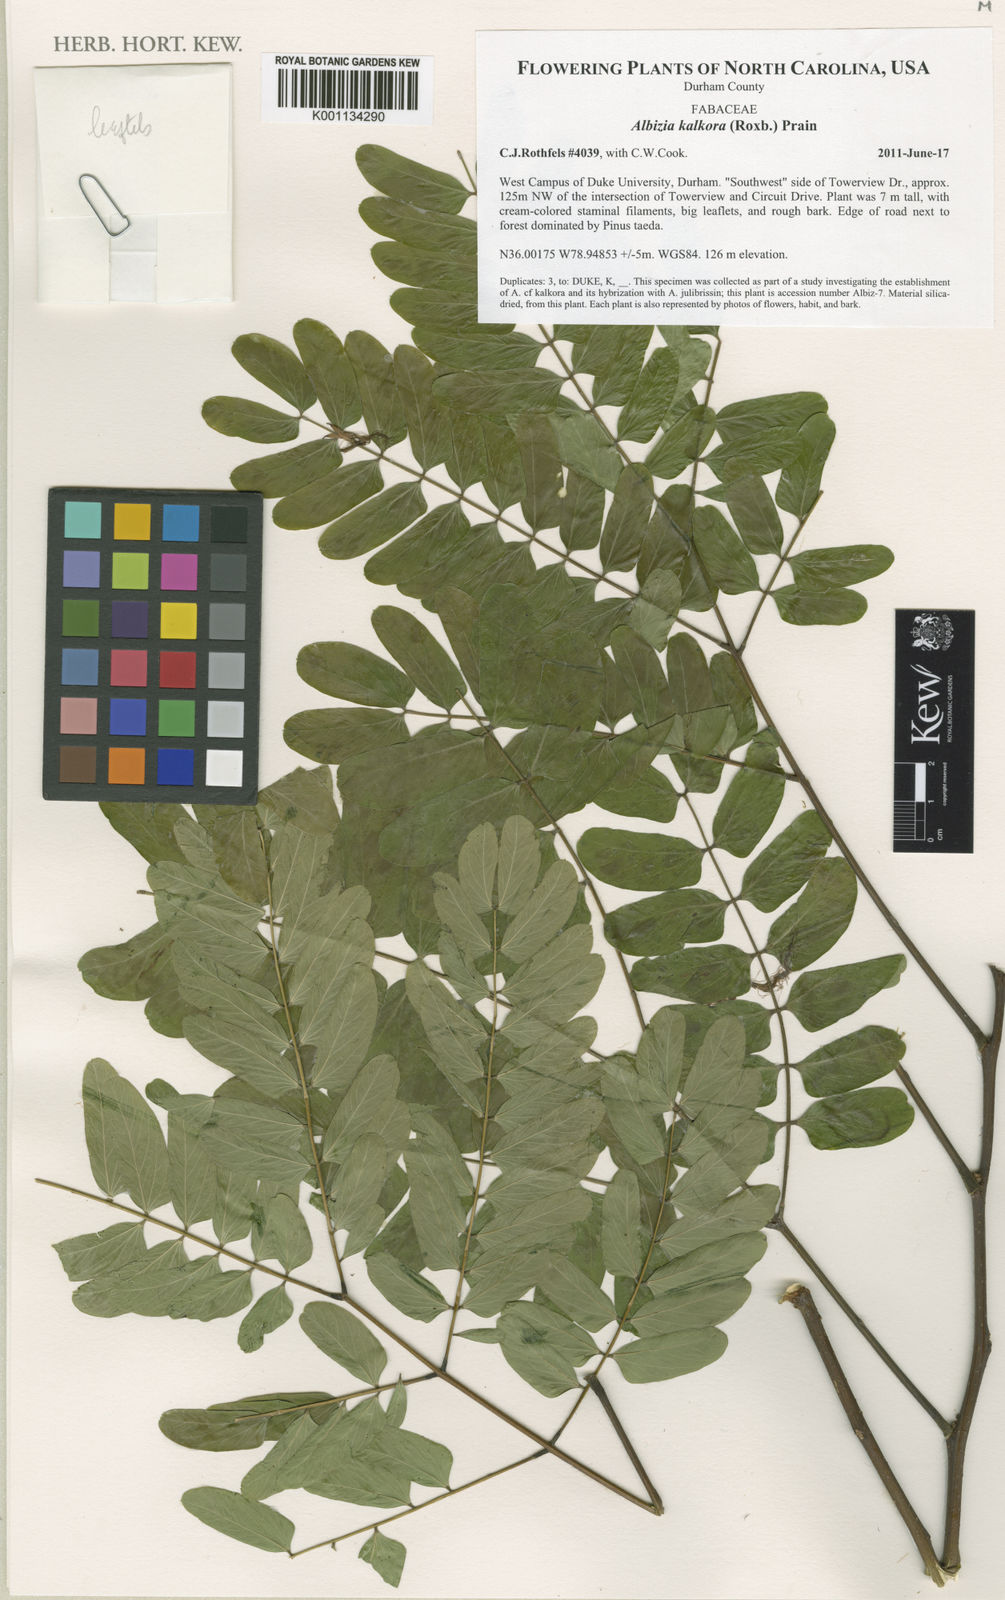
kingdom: Plantae
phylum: Tracheophyta
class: Magnoliopsida
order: Fabales
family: Fabaceae
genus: Albizia
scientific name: Albizia kalkora
